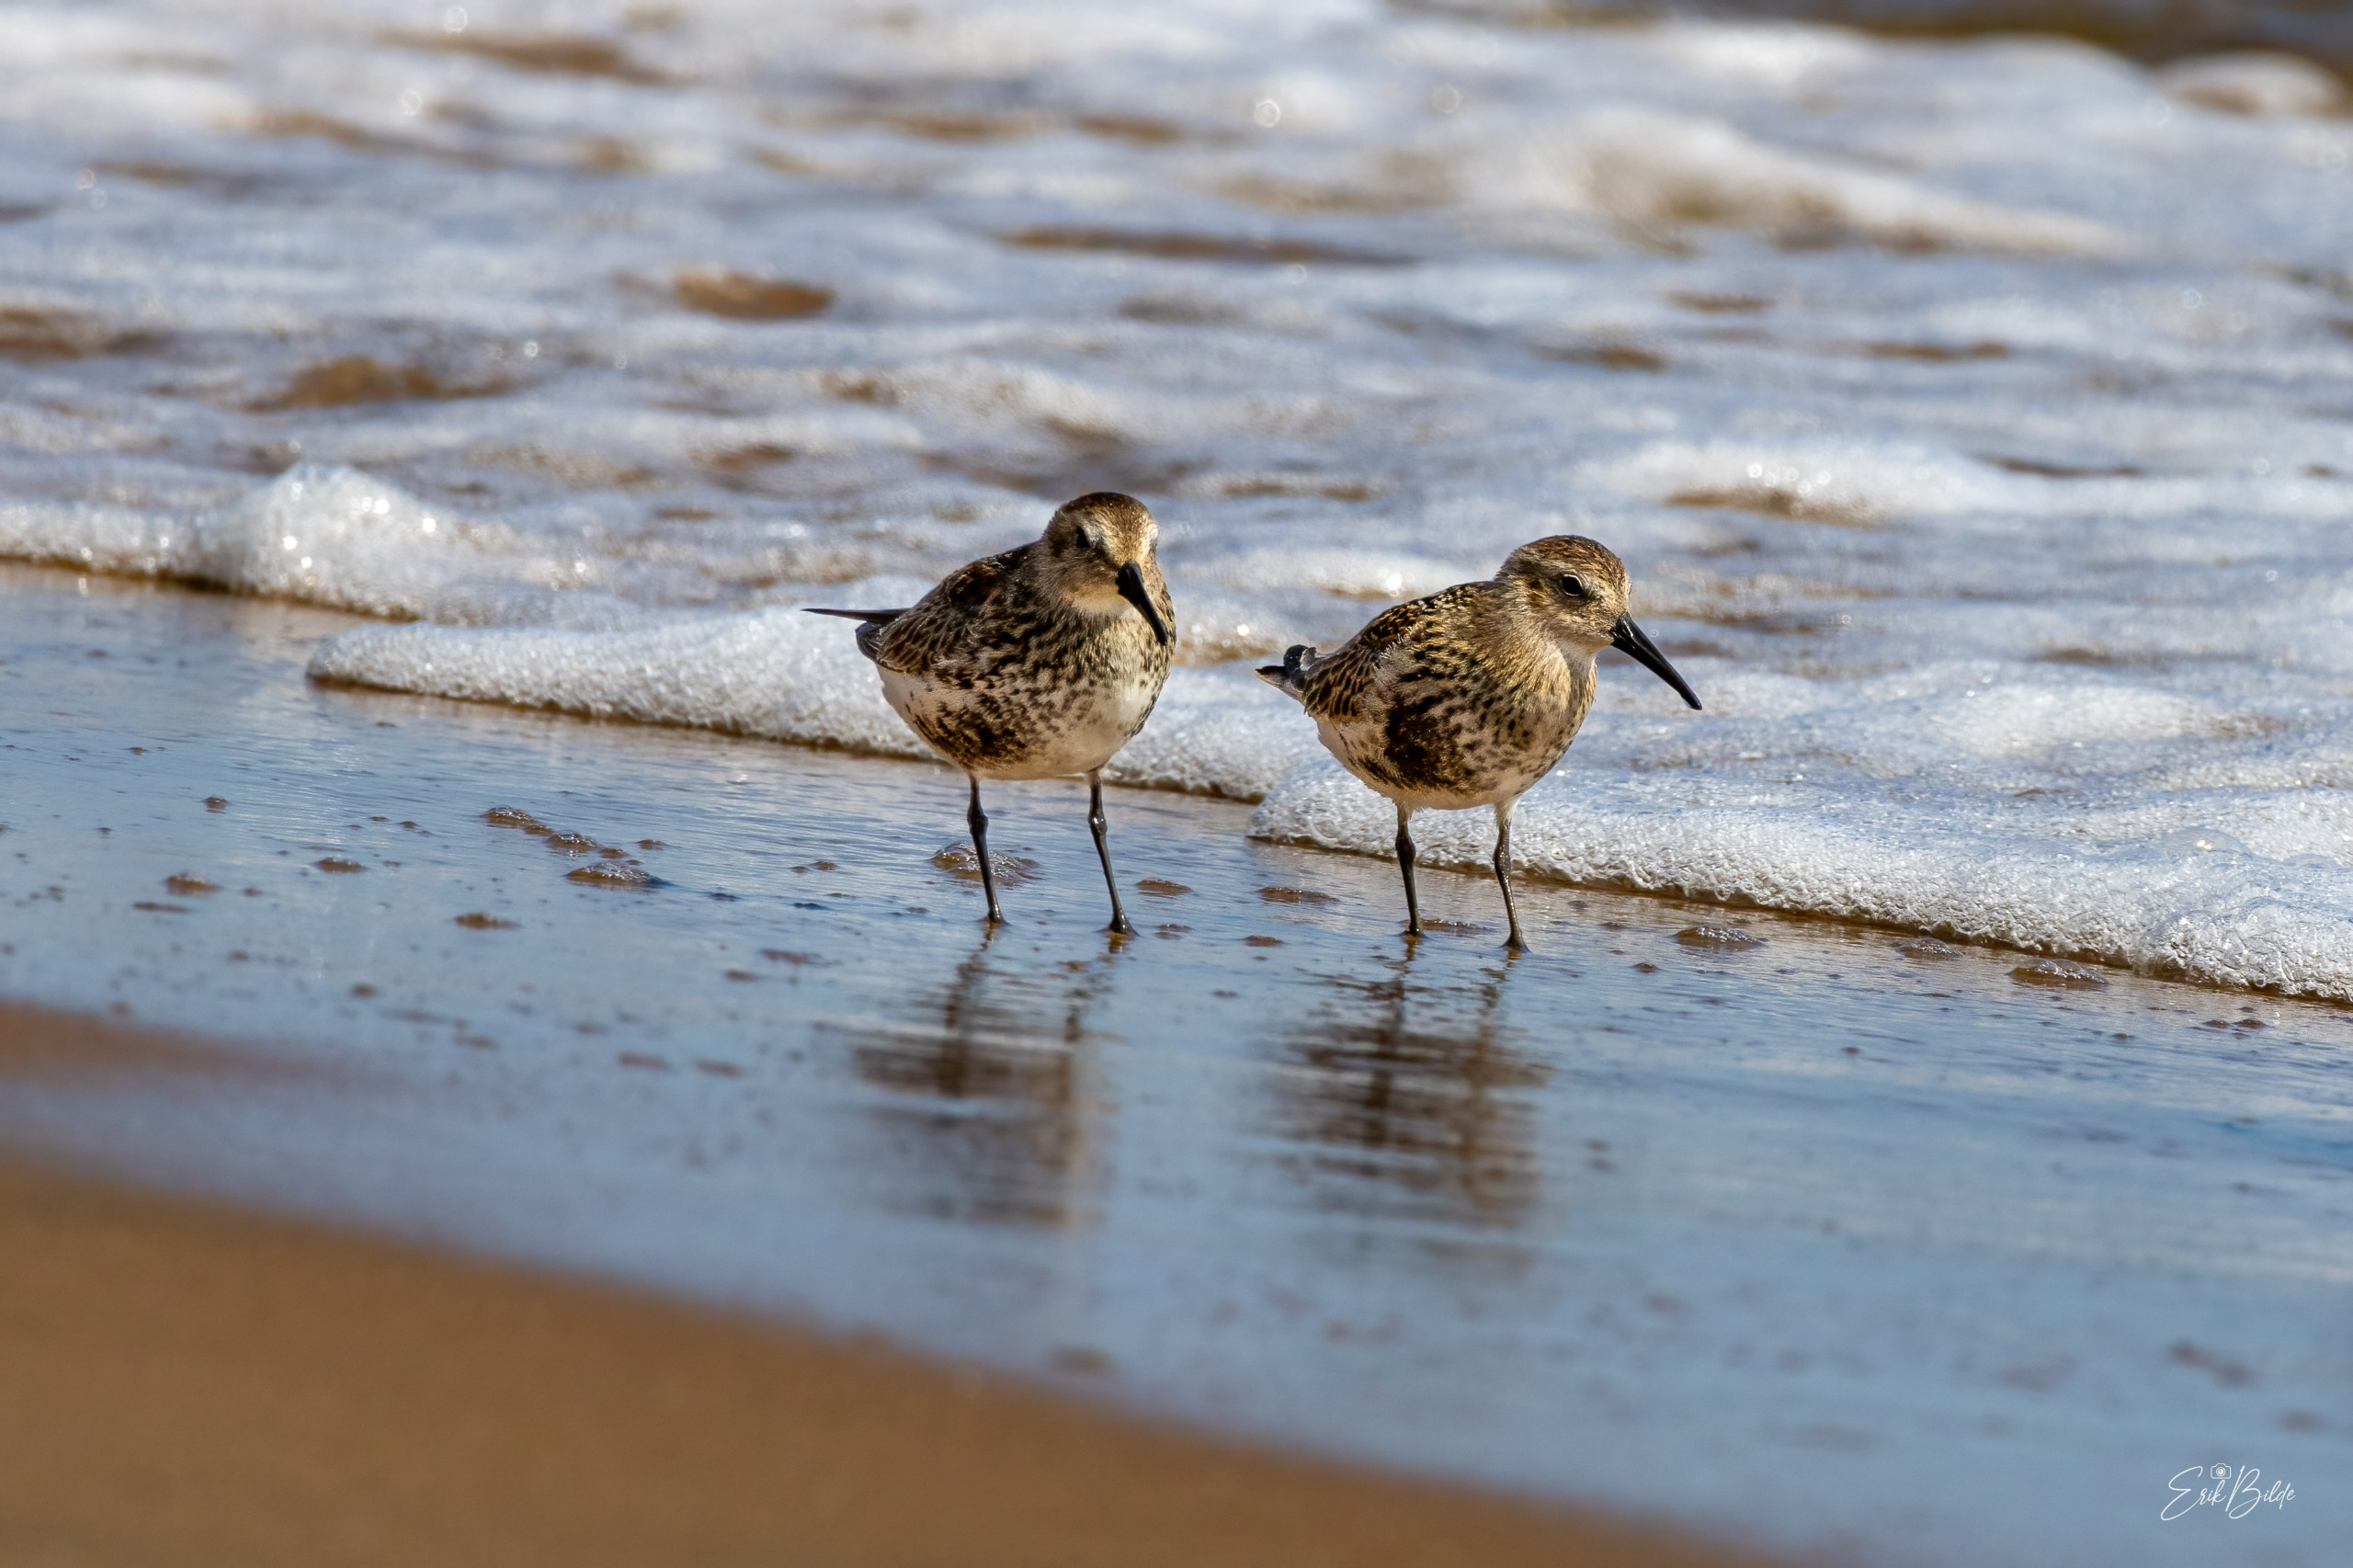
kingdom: Animalia
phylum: Chordata
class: Aves
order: Charadriiformes
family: Scolopacidae
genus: Calidris
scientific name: Calidris alpina
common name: Almindelig ryle
